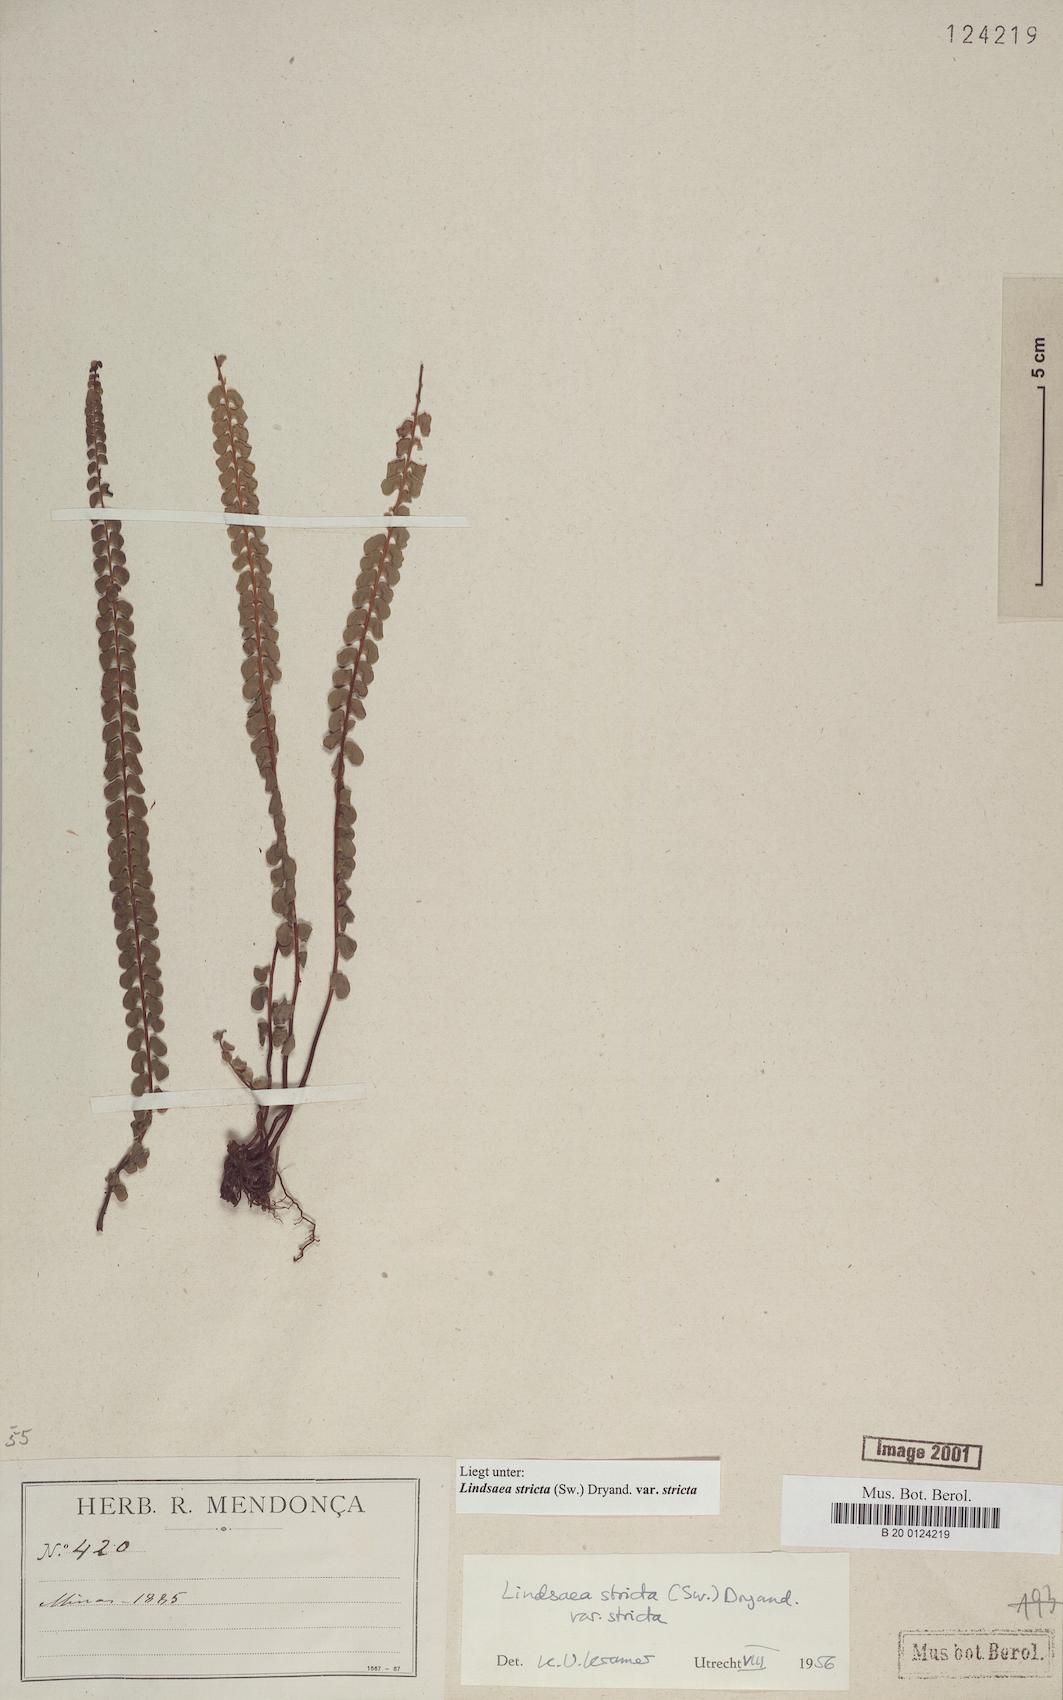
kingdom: Plantae
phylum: Tracheophyta
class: Polypodiopsida
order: Polypodiales
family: Lindsaeaceae
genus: Lindsaea
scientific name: Lindsaea stricta
